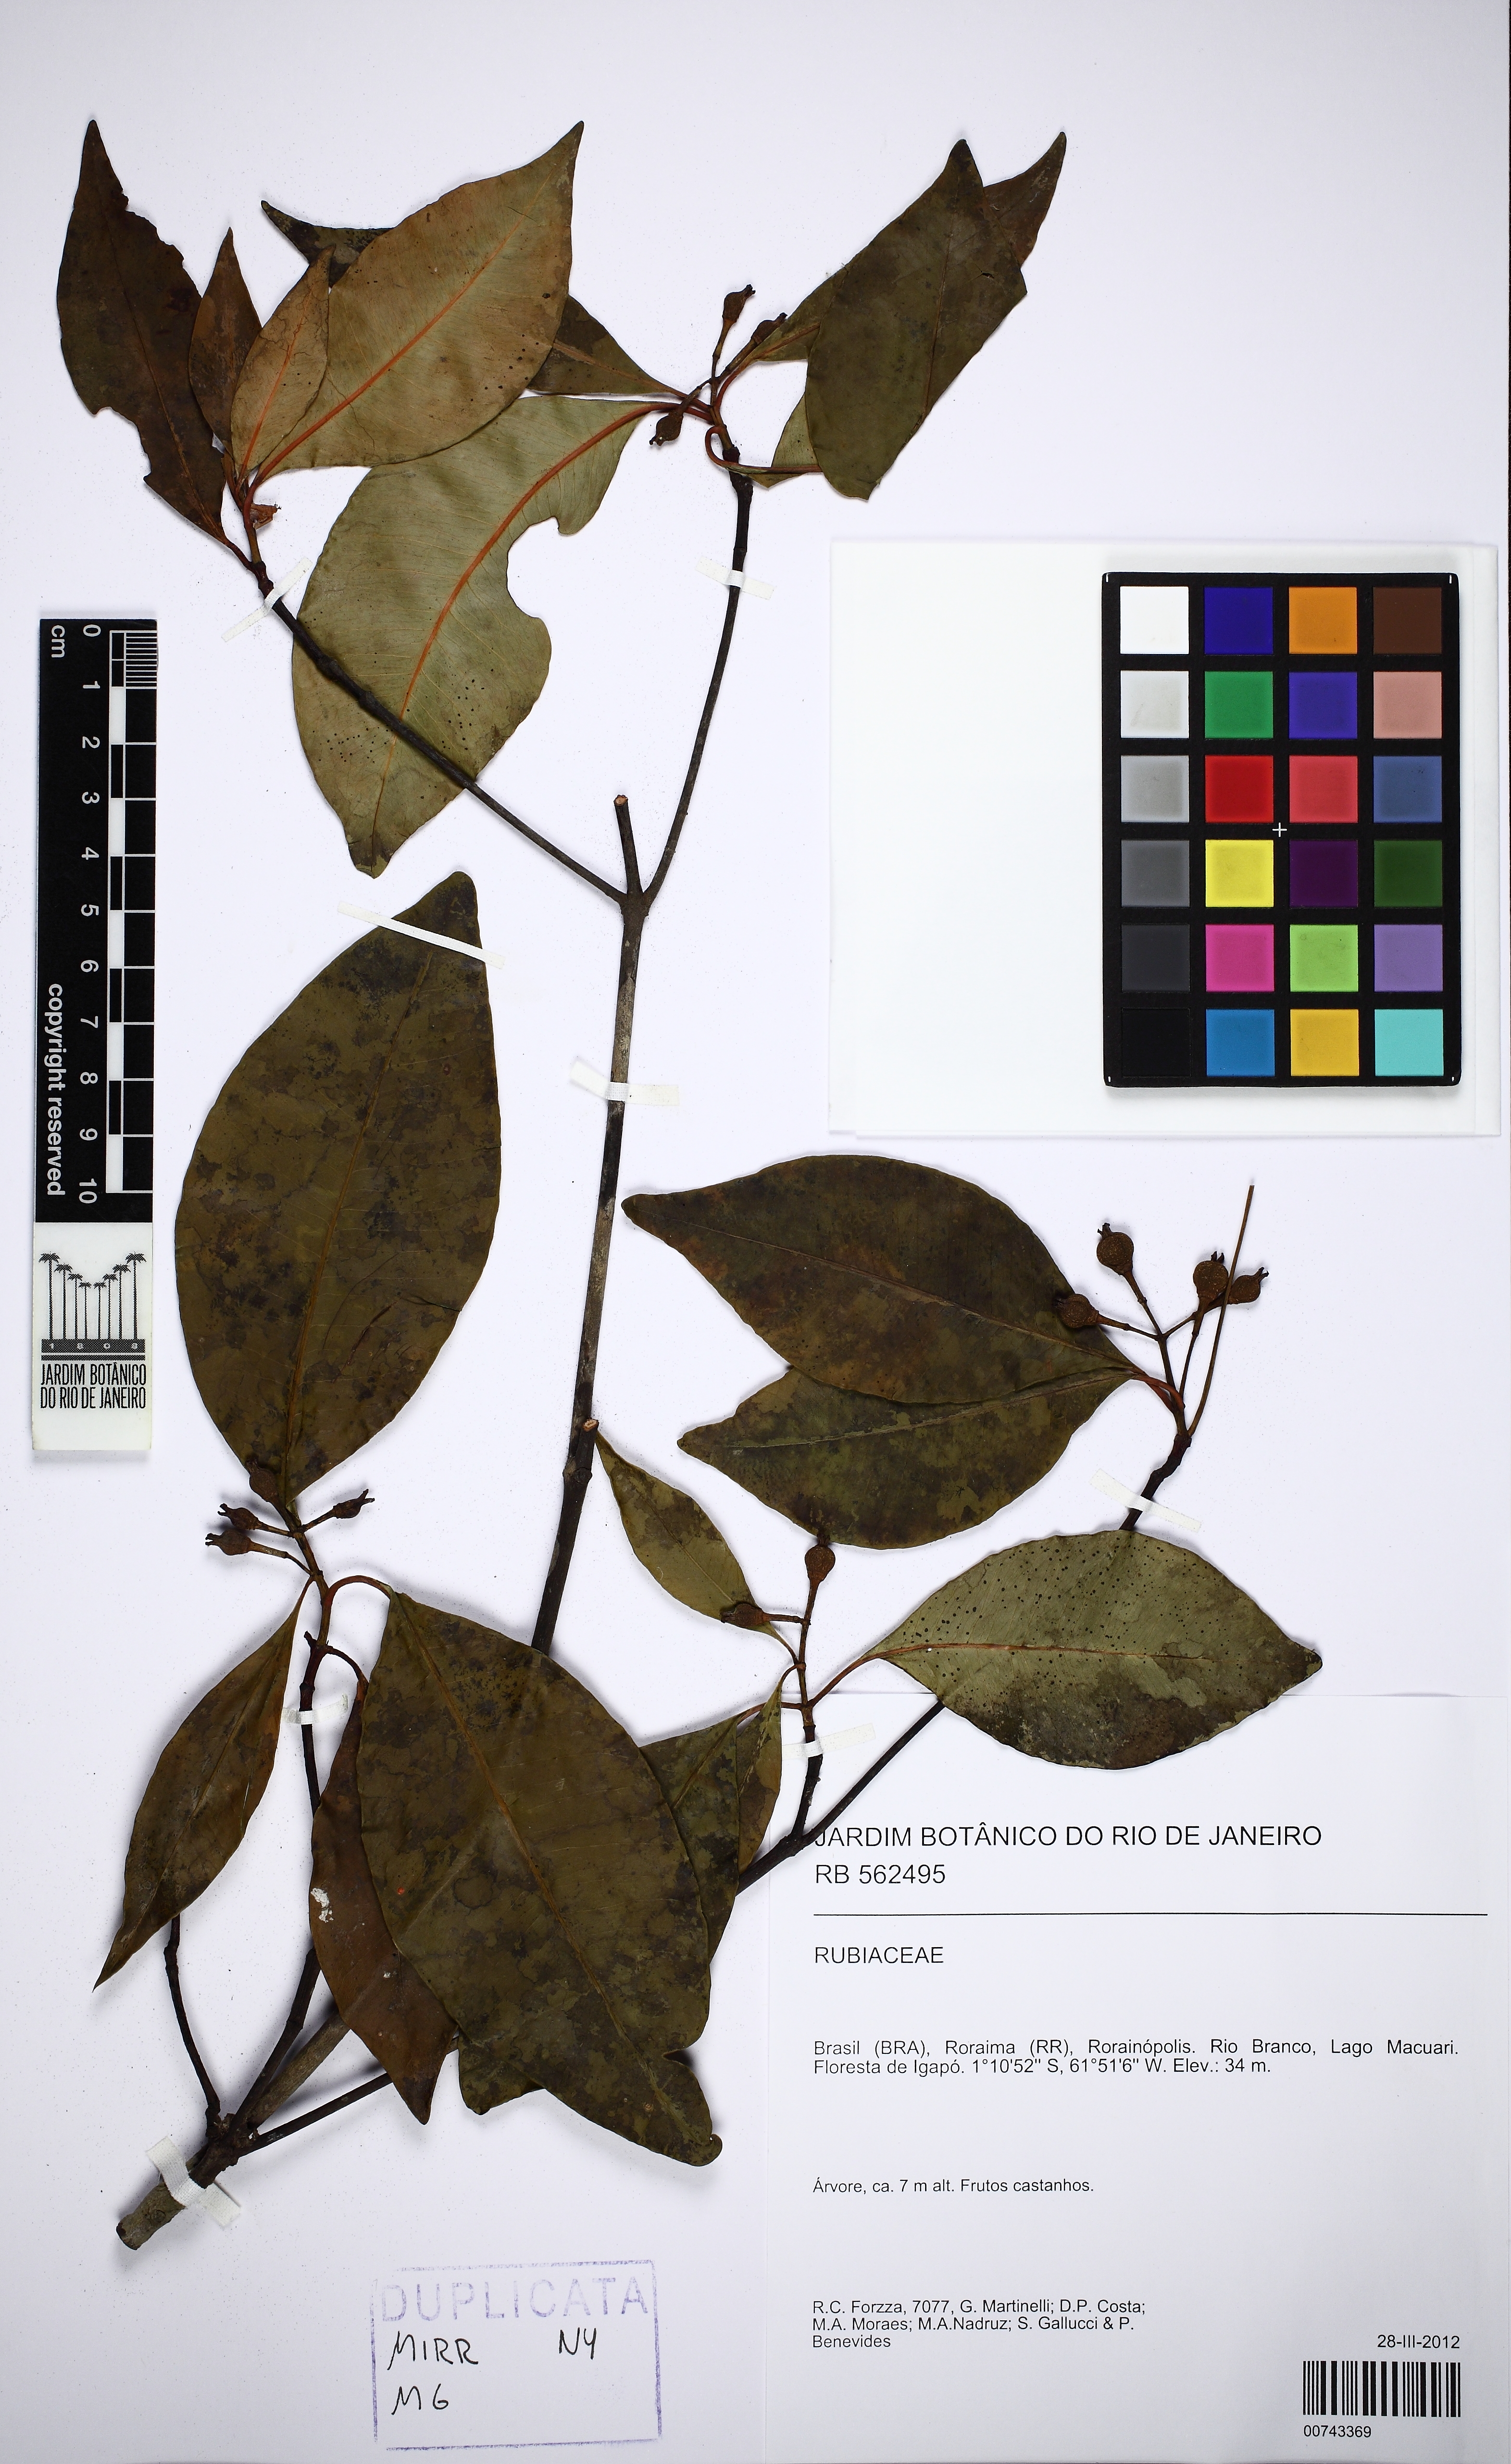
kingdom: Plantae
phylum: Tracheophyta
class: Magnoliopsida
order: Malpighiales
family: Clusiaceae
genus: Tovomita
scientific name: Tovomita amazonica
